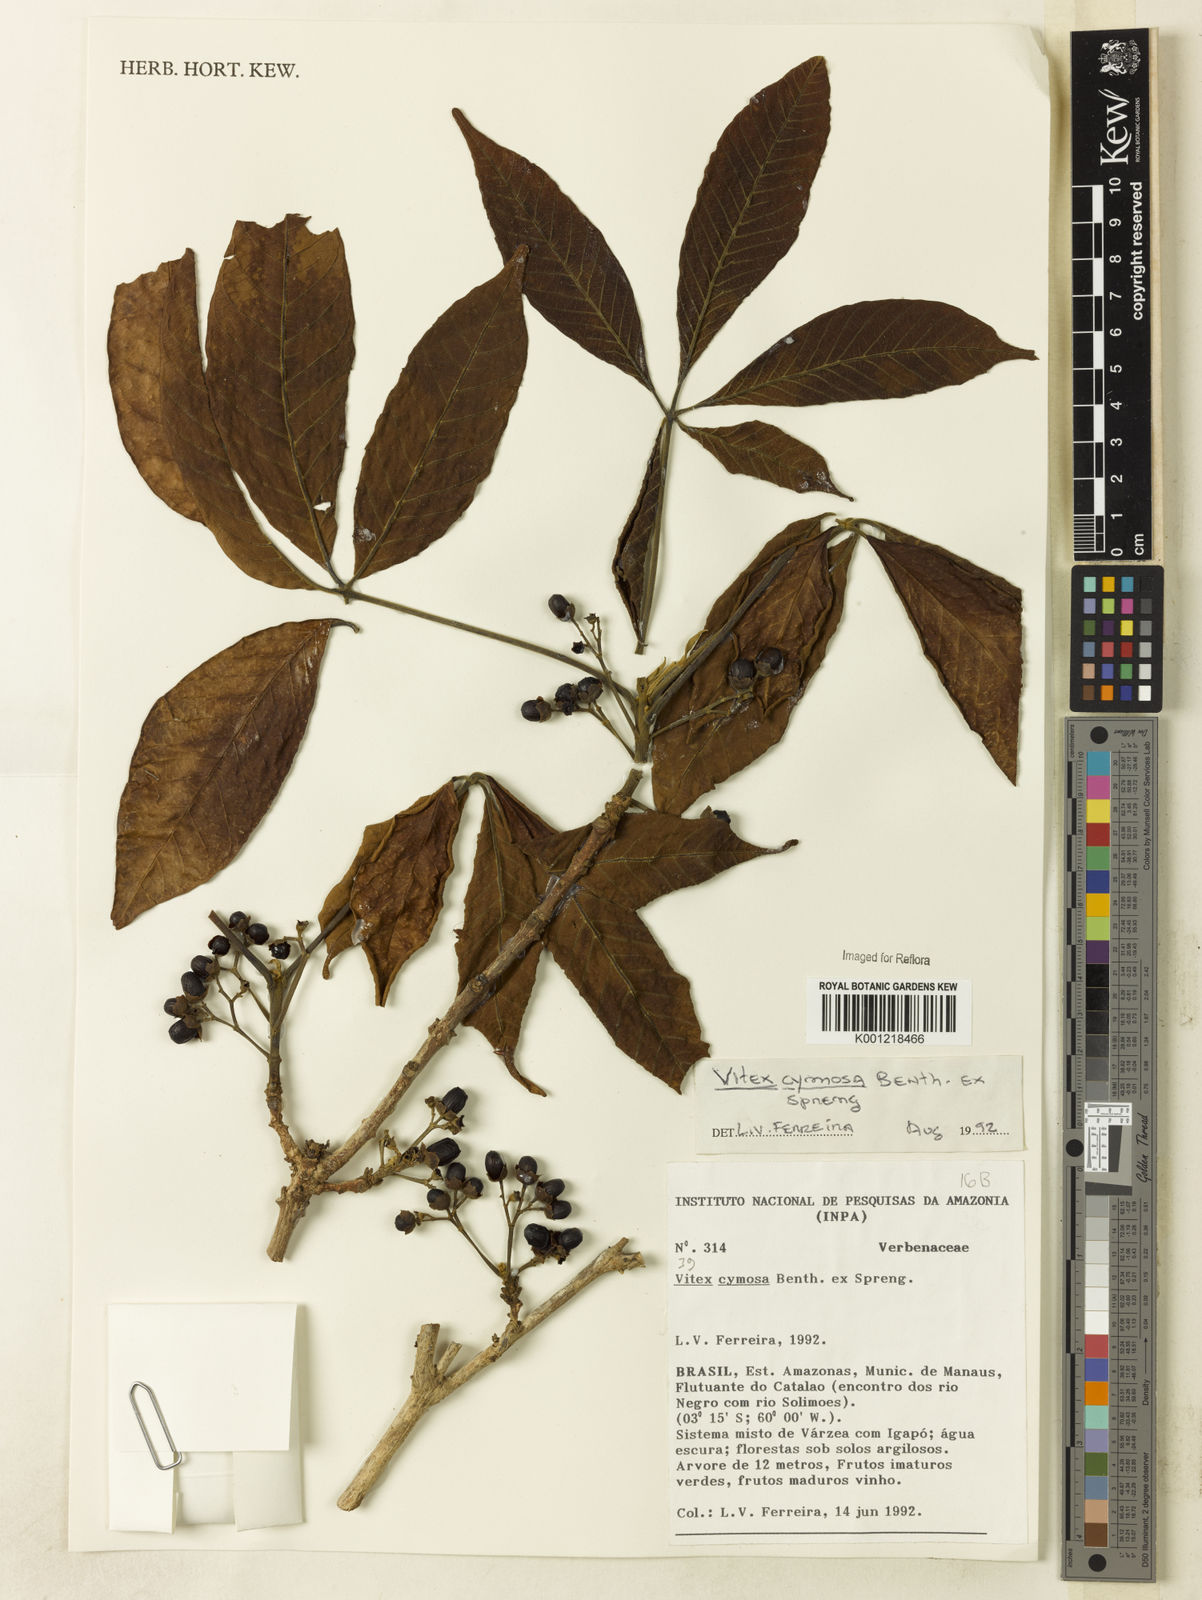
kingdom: Plantae
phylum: Tracheophyta
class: Magnoliopsida
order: Lamiales
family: Lamiaceae
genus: Vitex
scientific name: Vitex cymosa
